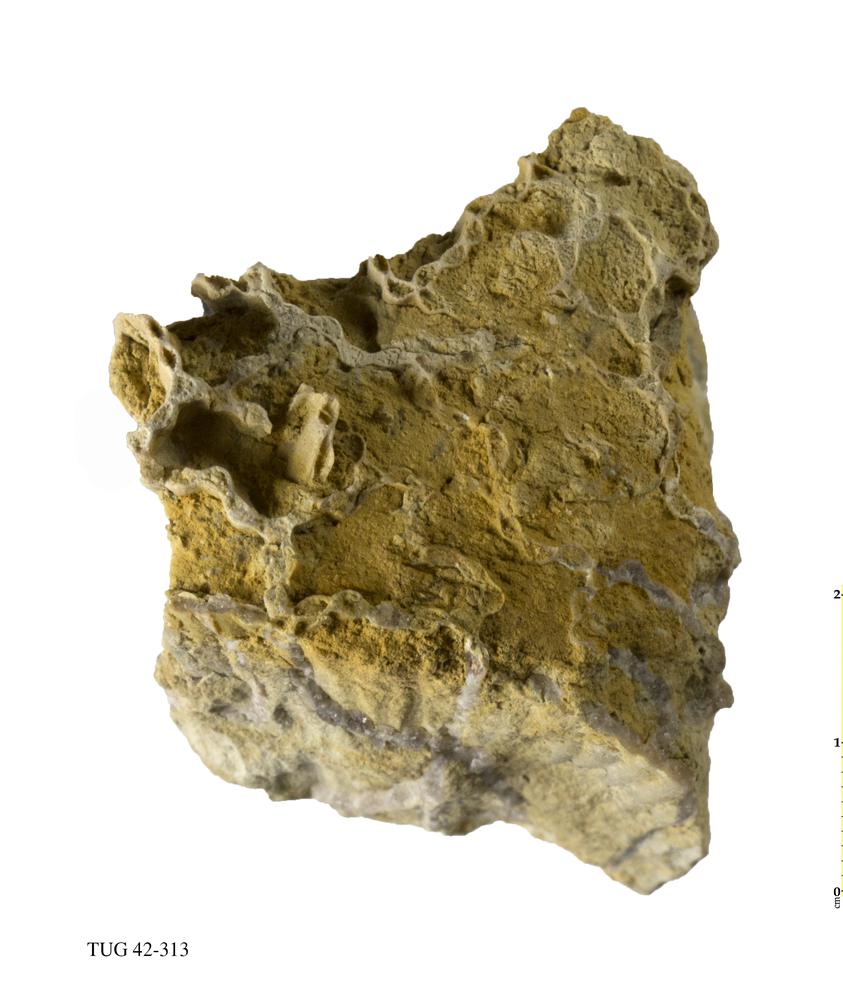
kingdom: Animalia
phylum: Cnidaria
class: Anthozoa
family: Cateniporidae
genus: Catenipora
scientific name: Catenipora
